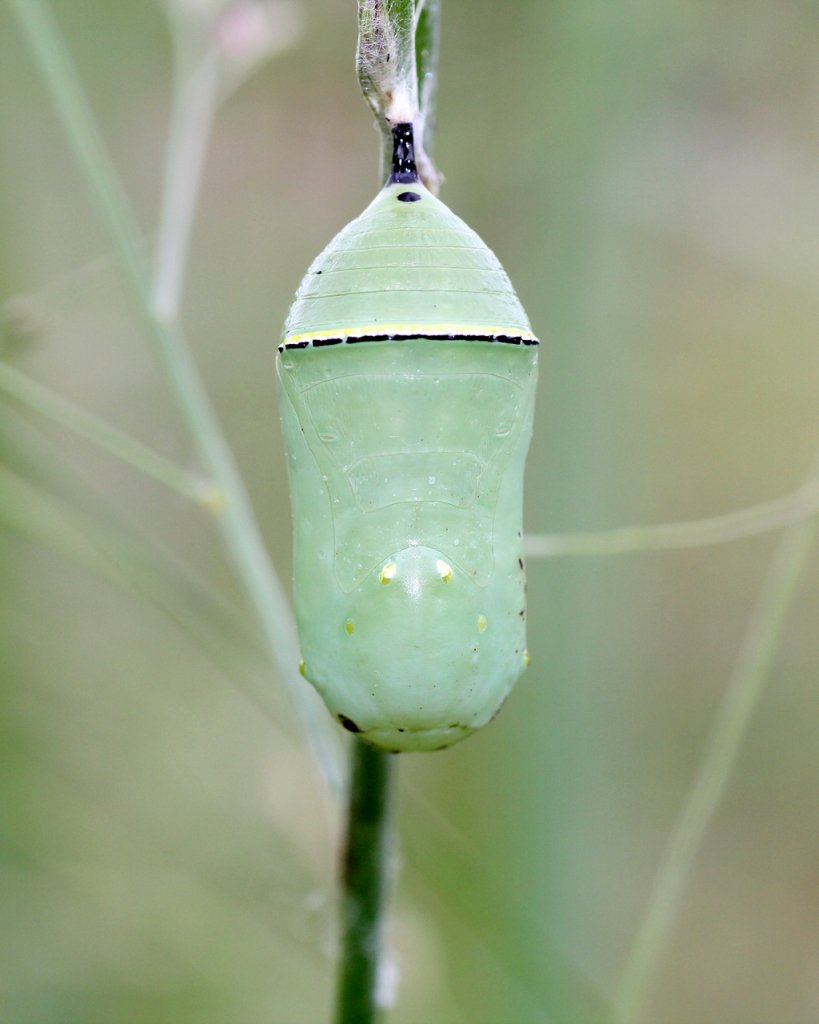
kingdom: Animalia
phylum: Arthropoda
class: Insecta
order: Lepidoptera
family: Nymphalidae
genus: Danaus
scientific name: Danaus plexippus
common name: Monarch
